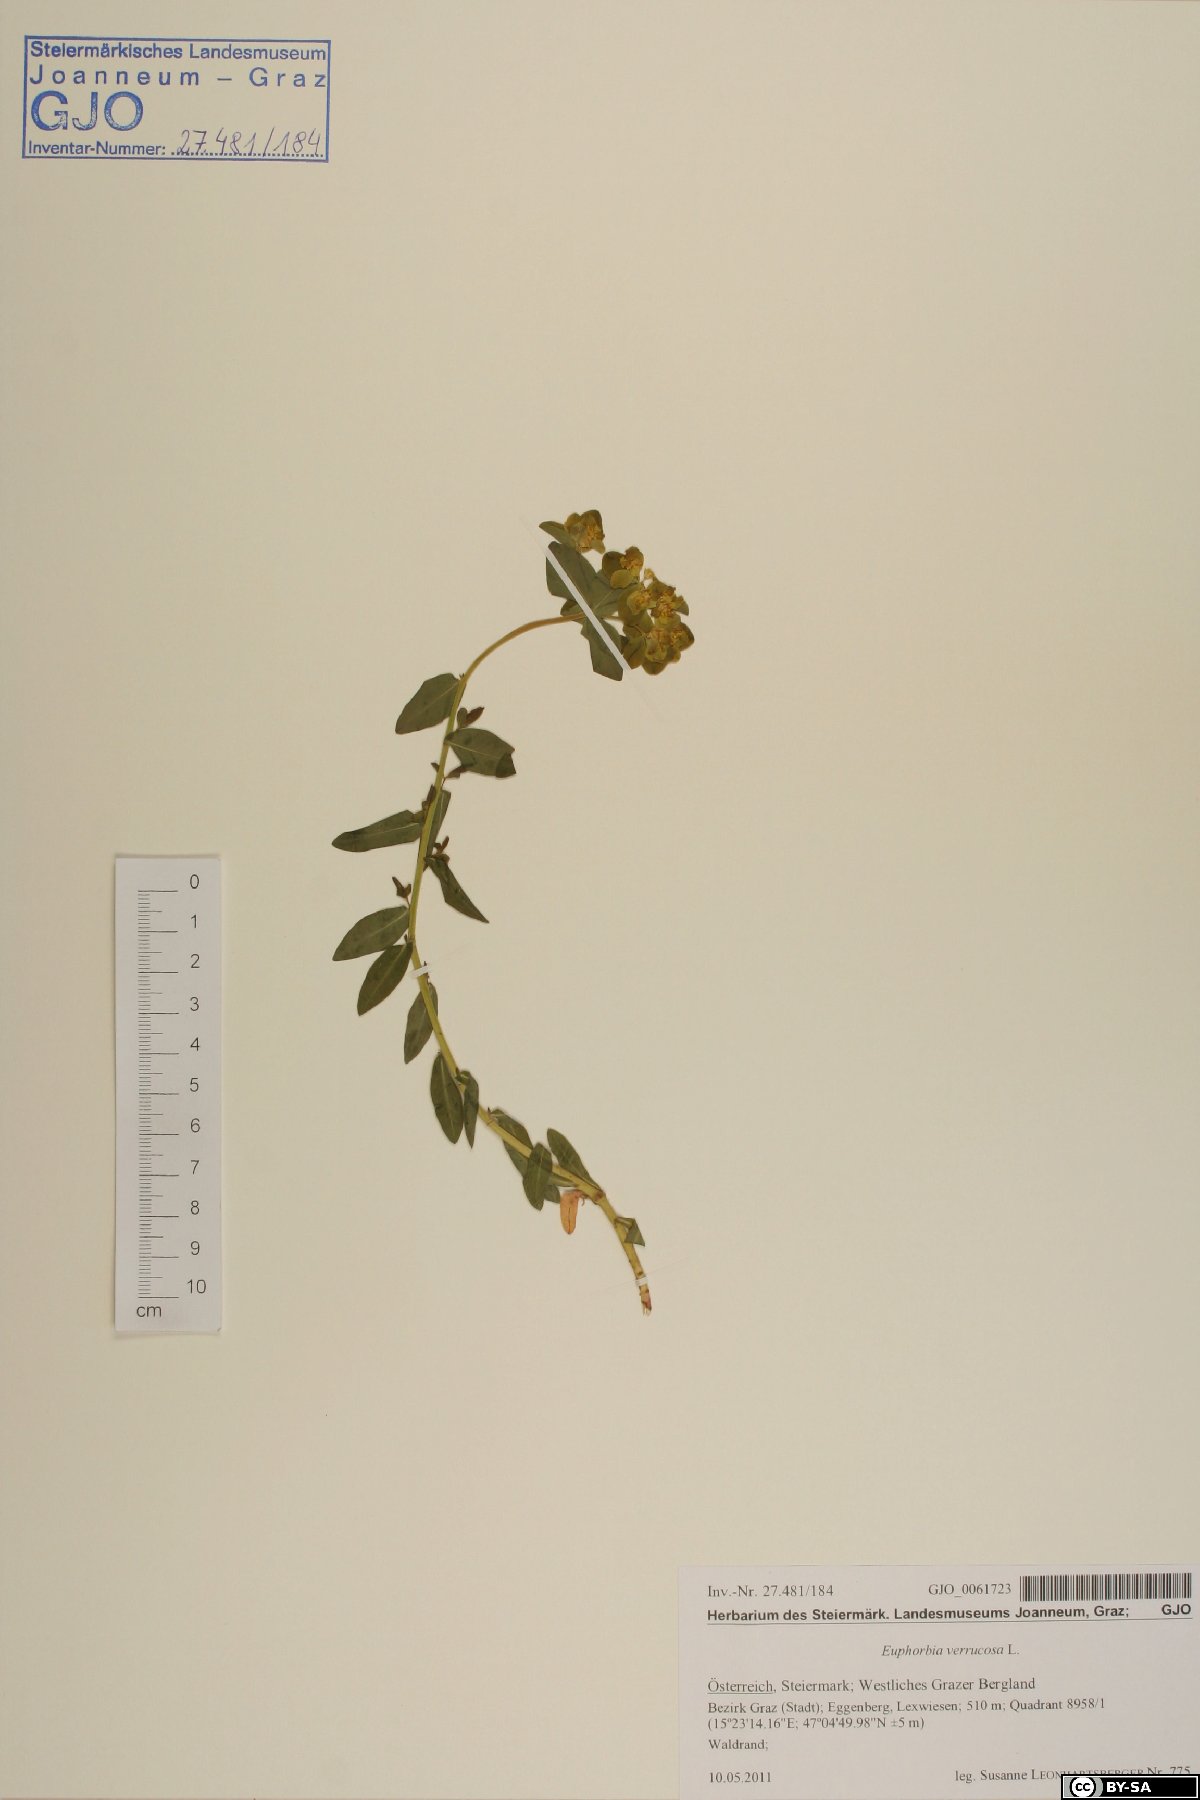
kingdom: Plantae
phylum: Tracheophyta
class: Magnoliopsida
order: Malpighiales
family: Euphorbiaceae
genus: Euphorbia
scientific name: Euphorbia verrucosa
